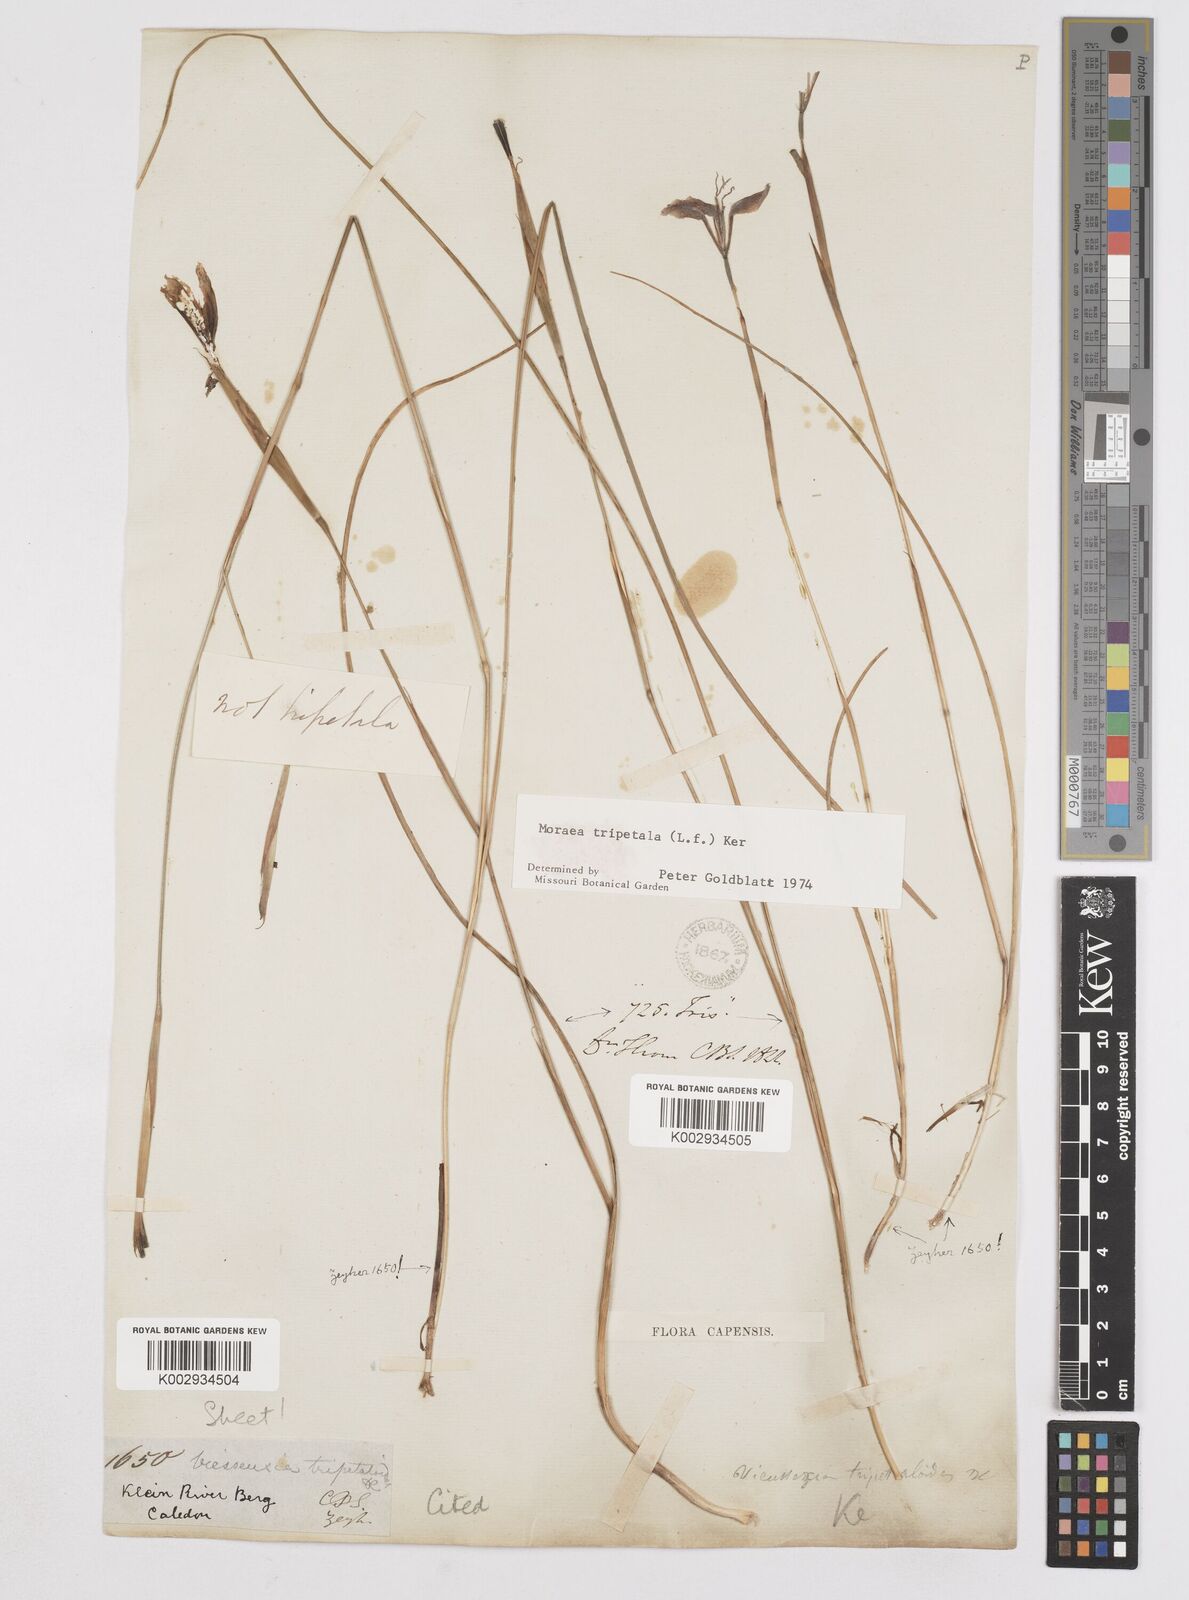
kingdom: Plantae
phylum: Tracheophyta
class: Liliopsida
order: Asparagales
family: Iridaceae
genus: Moraea
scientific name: Moraea tripetala
